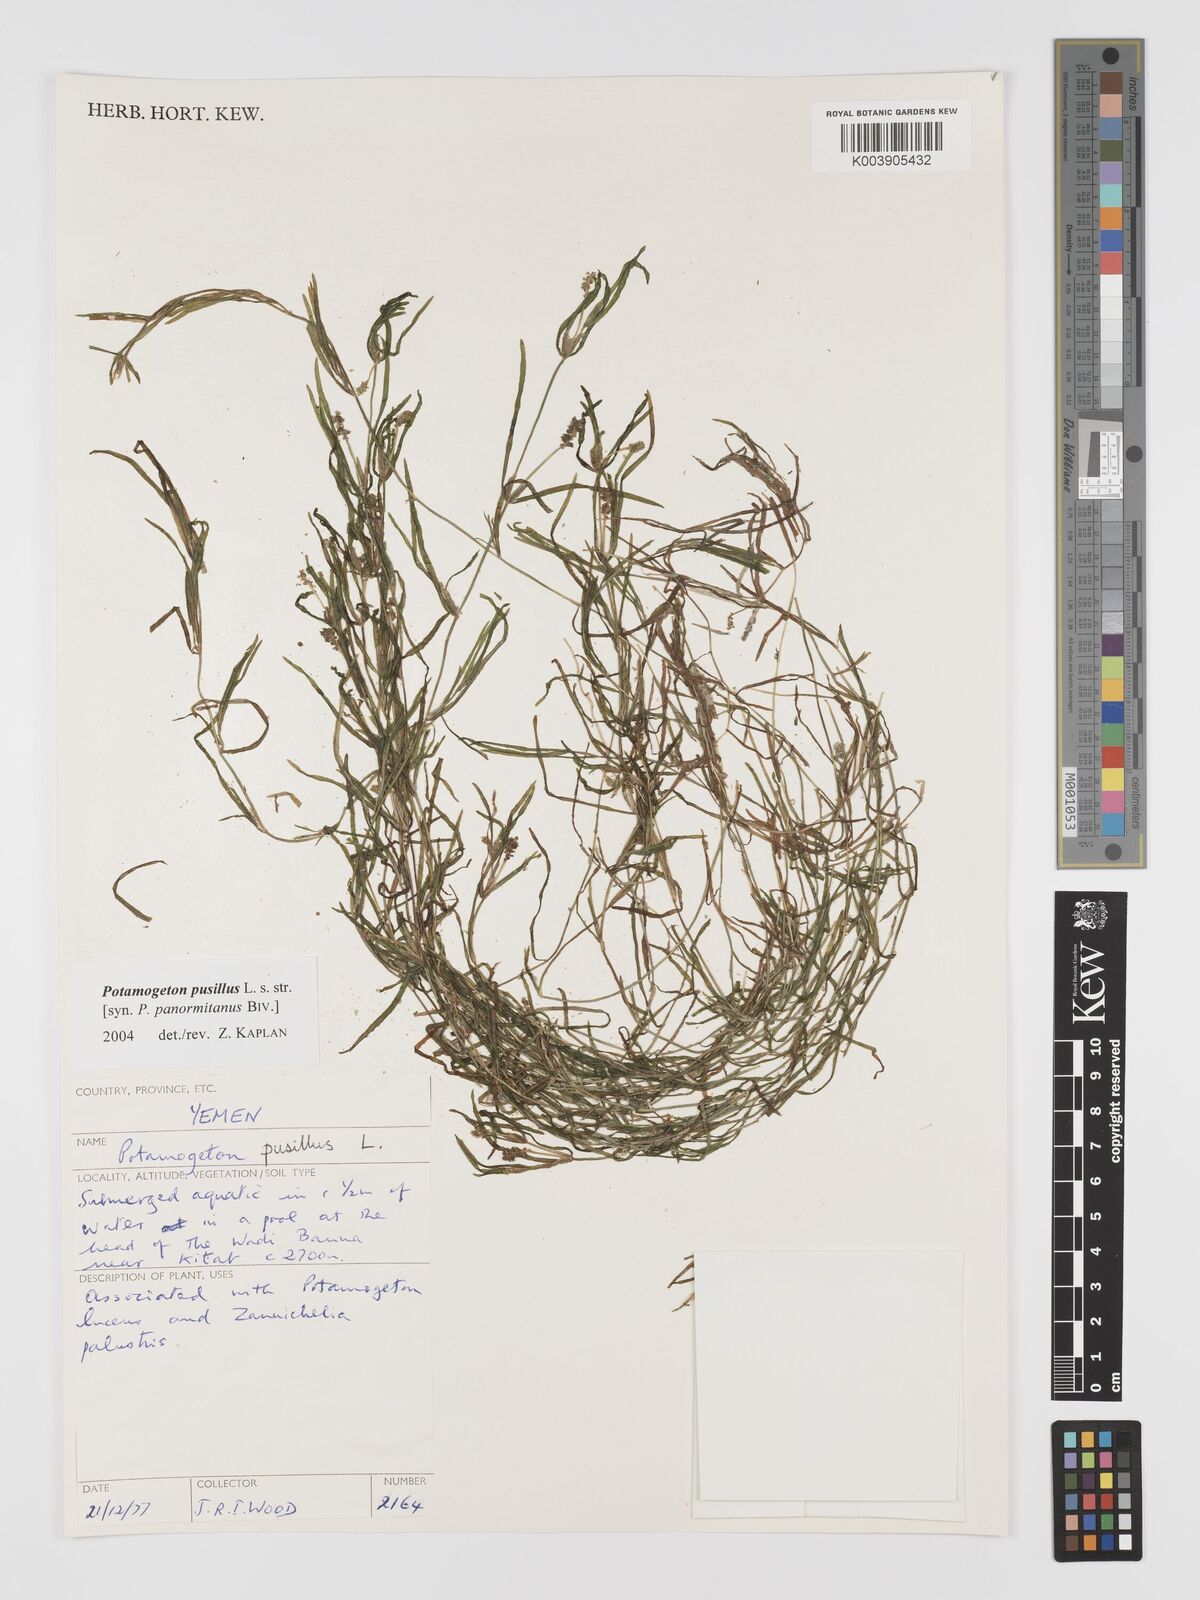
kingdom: Plantae
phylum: Tracheophyta
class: Liliopsida
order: Alismatales
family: Potamogetonaceae
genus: Potamogeton
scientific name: Potamogeton pusillus
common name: Lesser pondweed
